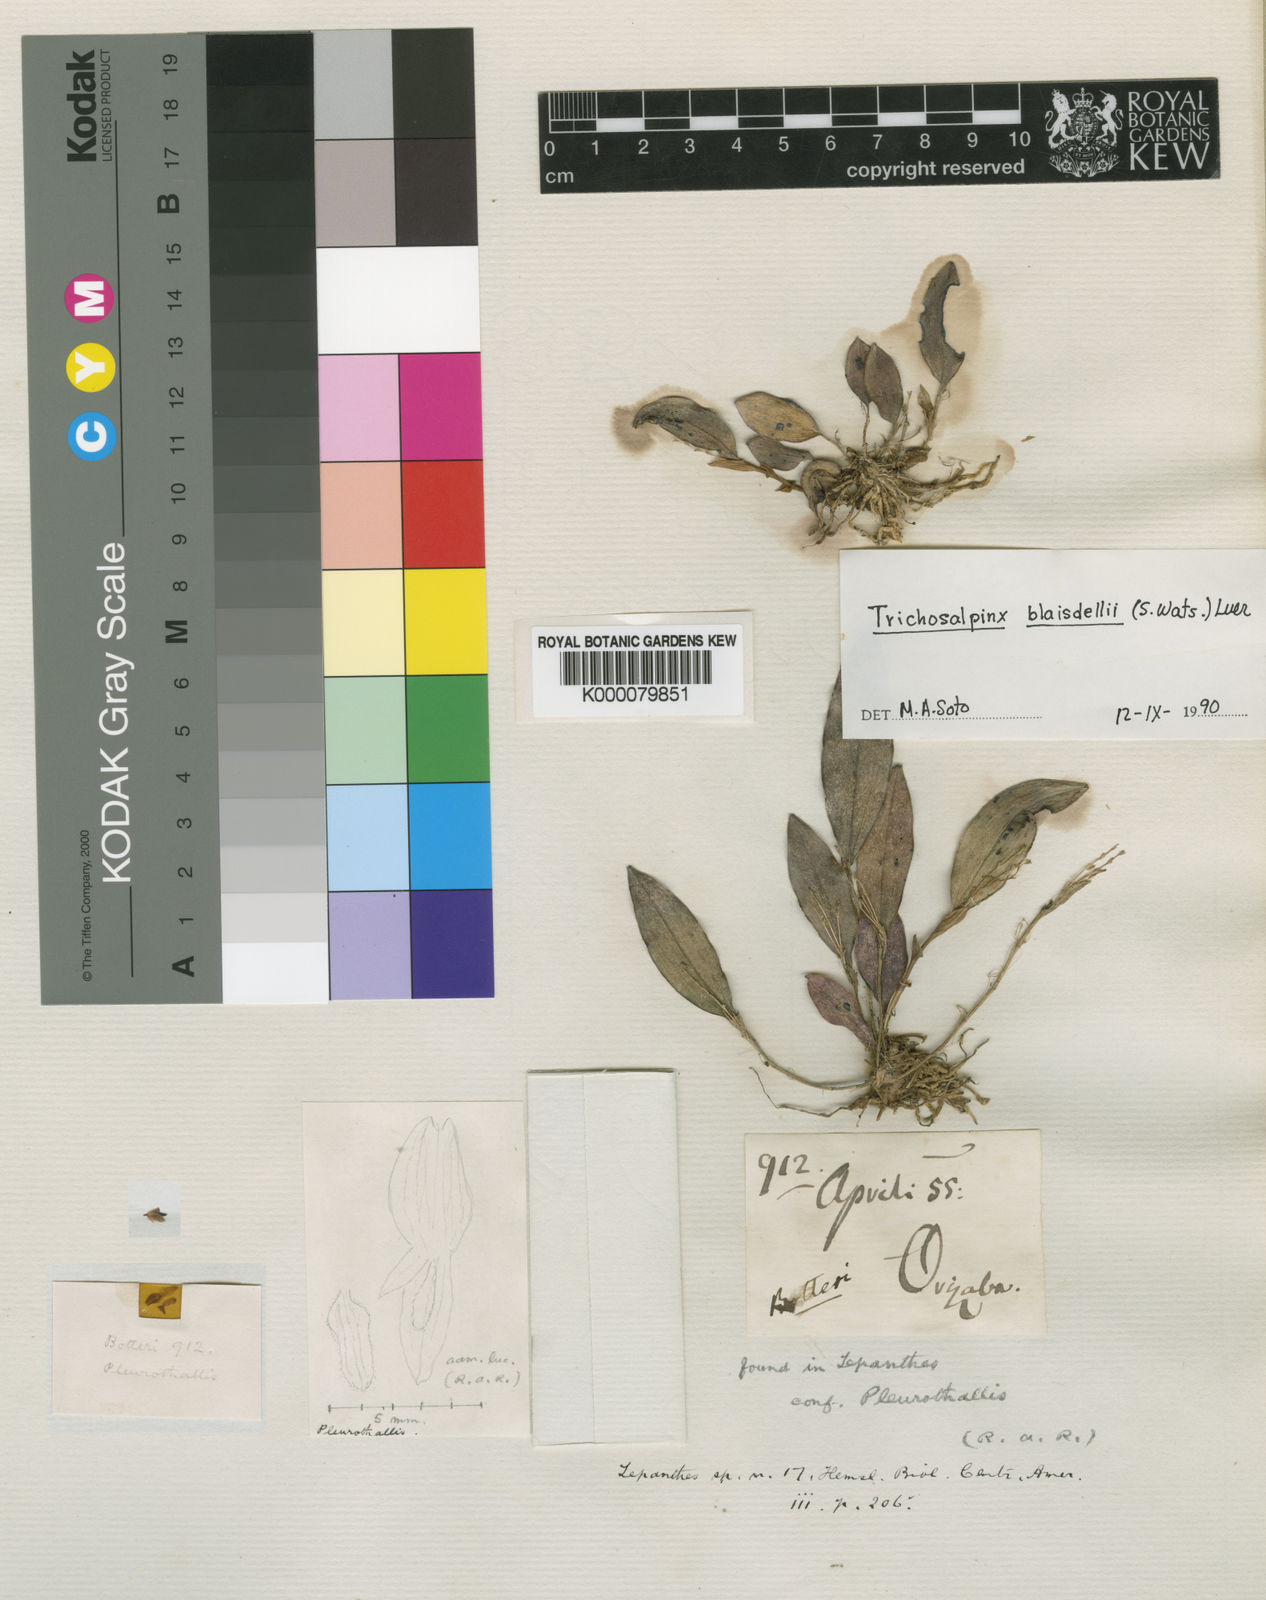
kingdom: Plantae
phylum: Tracheophyta
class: Liliopsida
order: Asparagales
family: Orchidaceae
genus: Trichosalpinx
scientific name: Trichosalpinx blaisdellii
